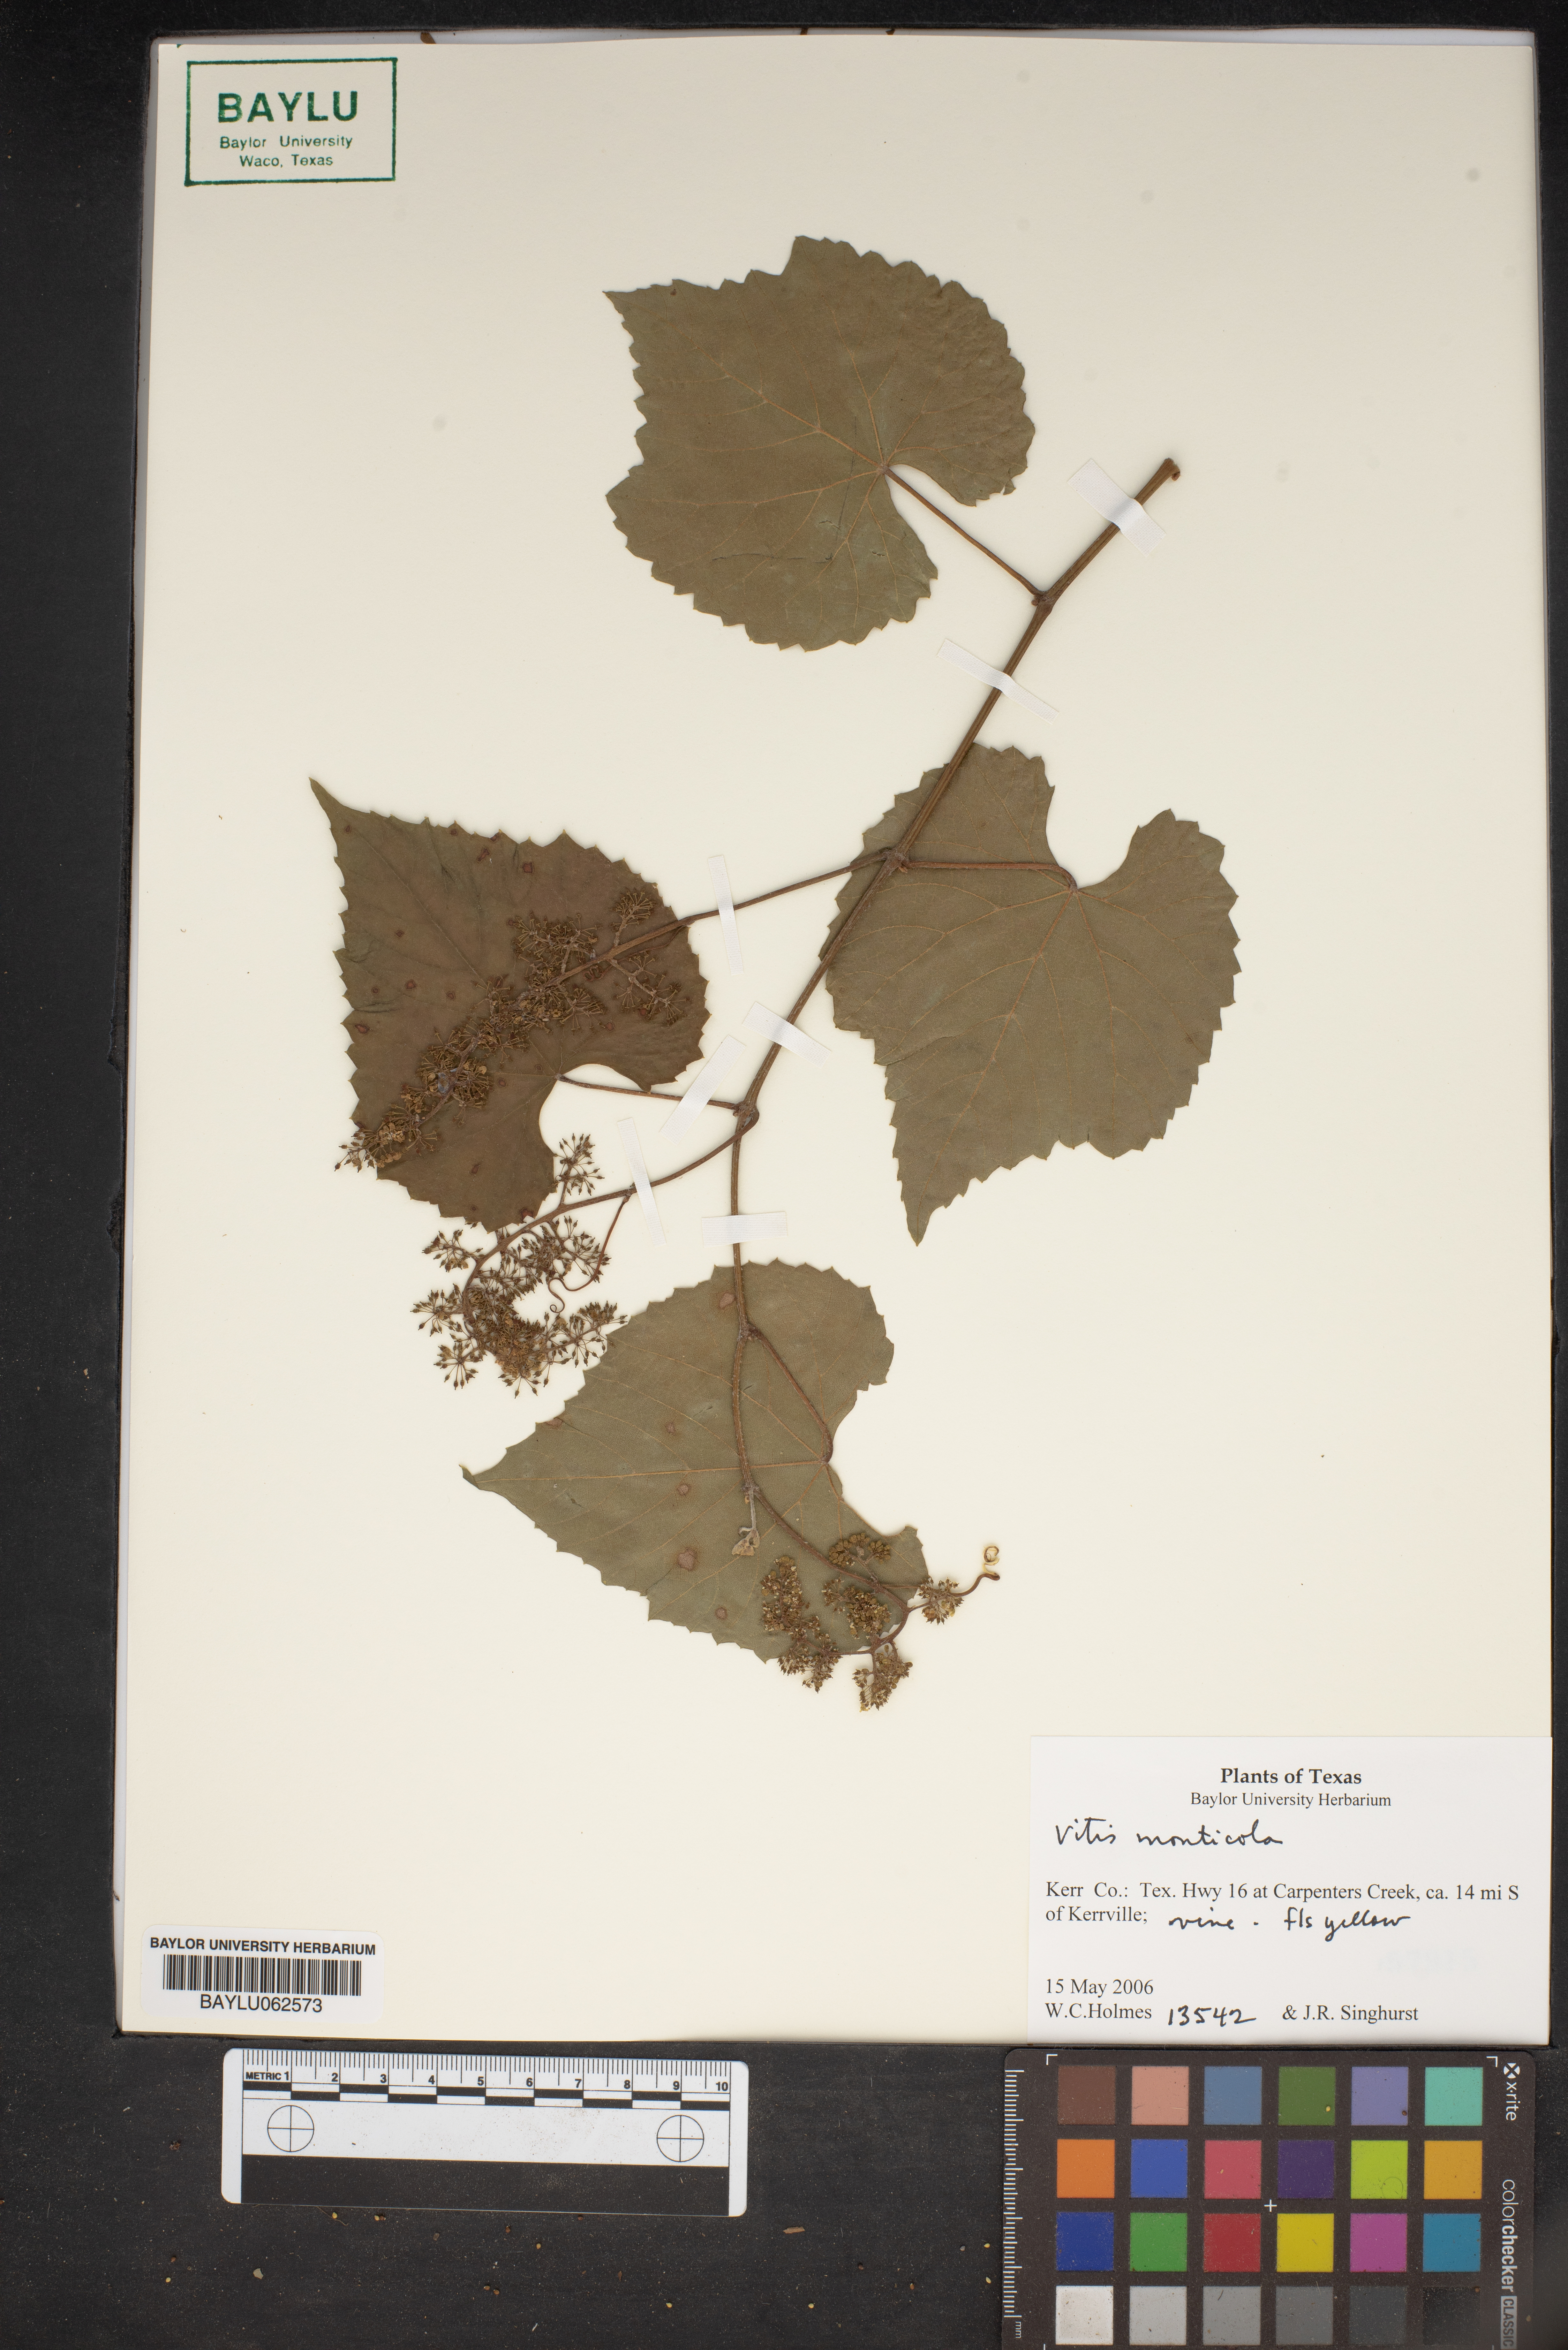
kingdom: Plantae
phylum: Tracheophyta
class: Magnoliopsida
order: Vitales
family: Vitaceae
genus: Vitis
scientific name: Vitis monticola
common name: Mountain grape
